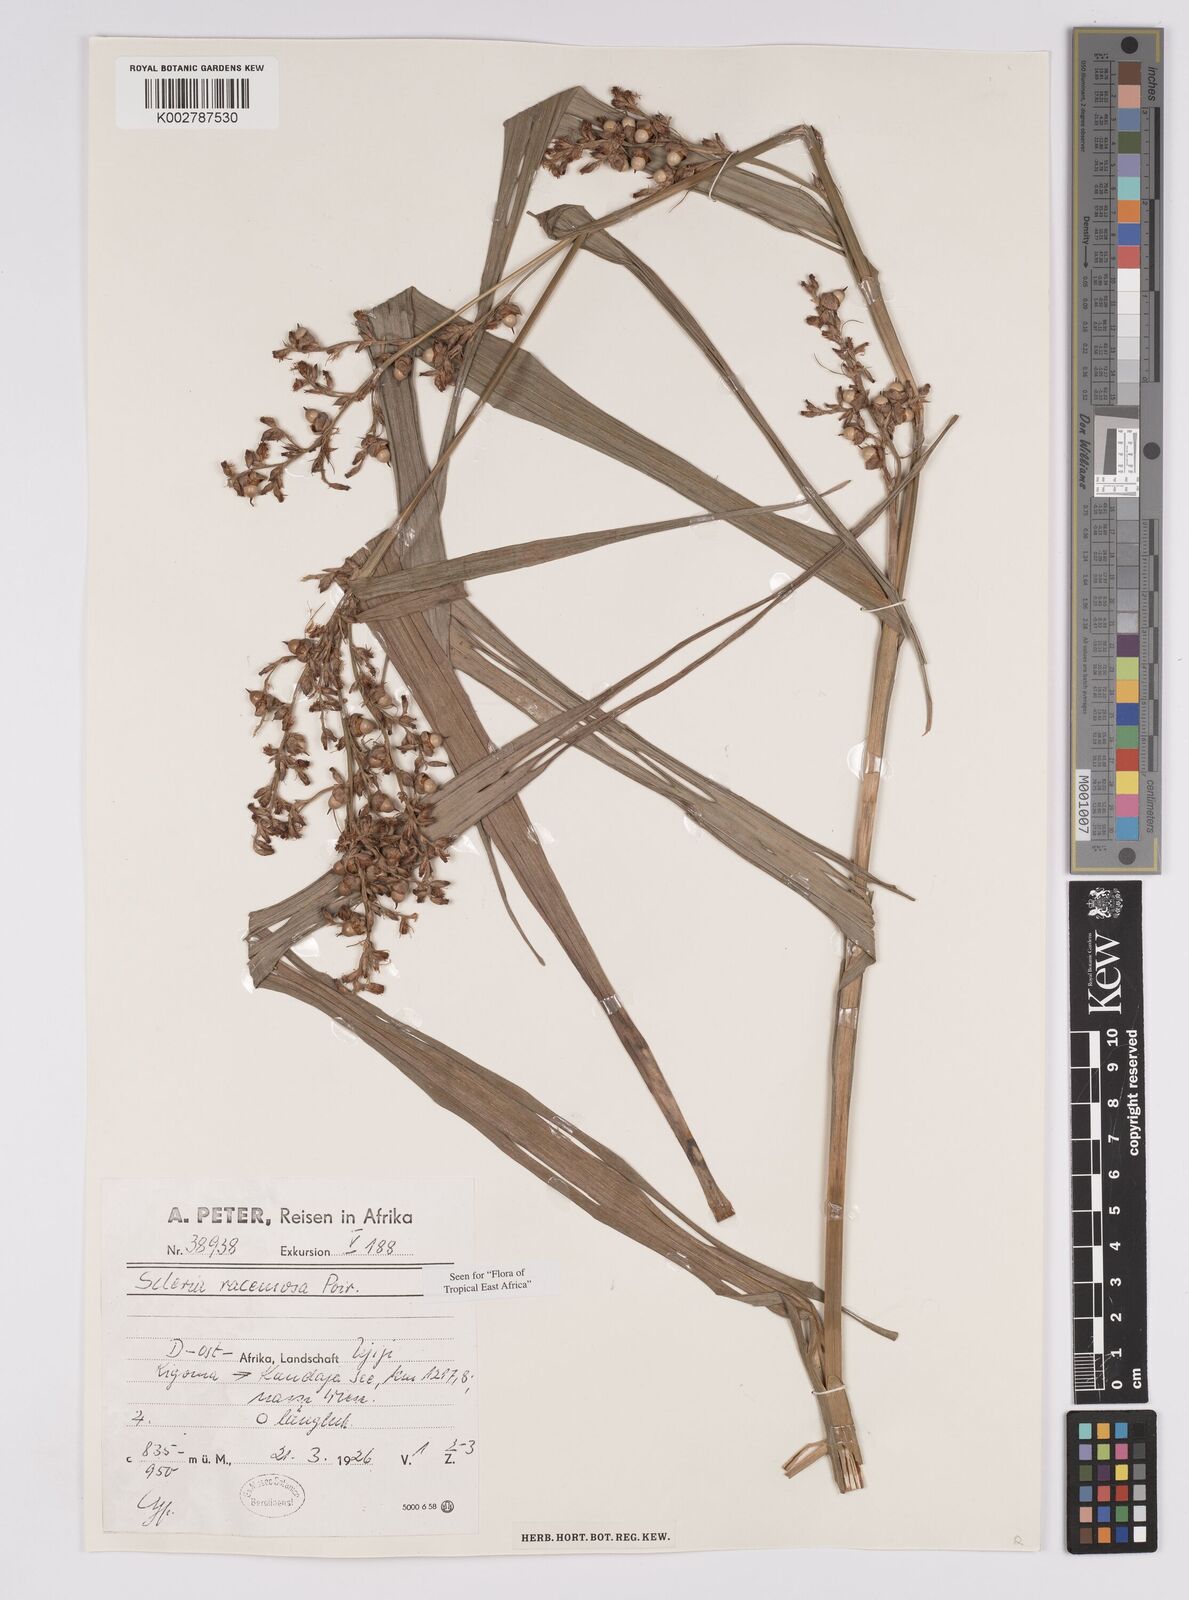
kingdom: Plantae
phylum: Tracheophyta
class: Liliopsida
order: Poales
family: Cyperaceae
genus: Scleria
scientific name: Scleria racemosa
